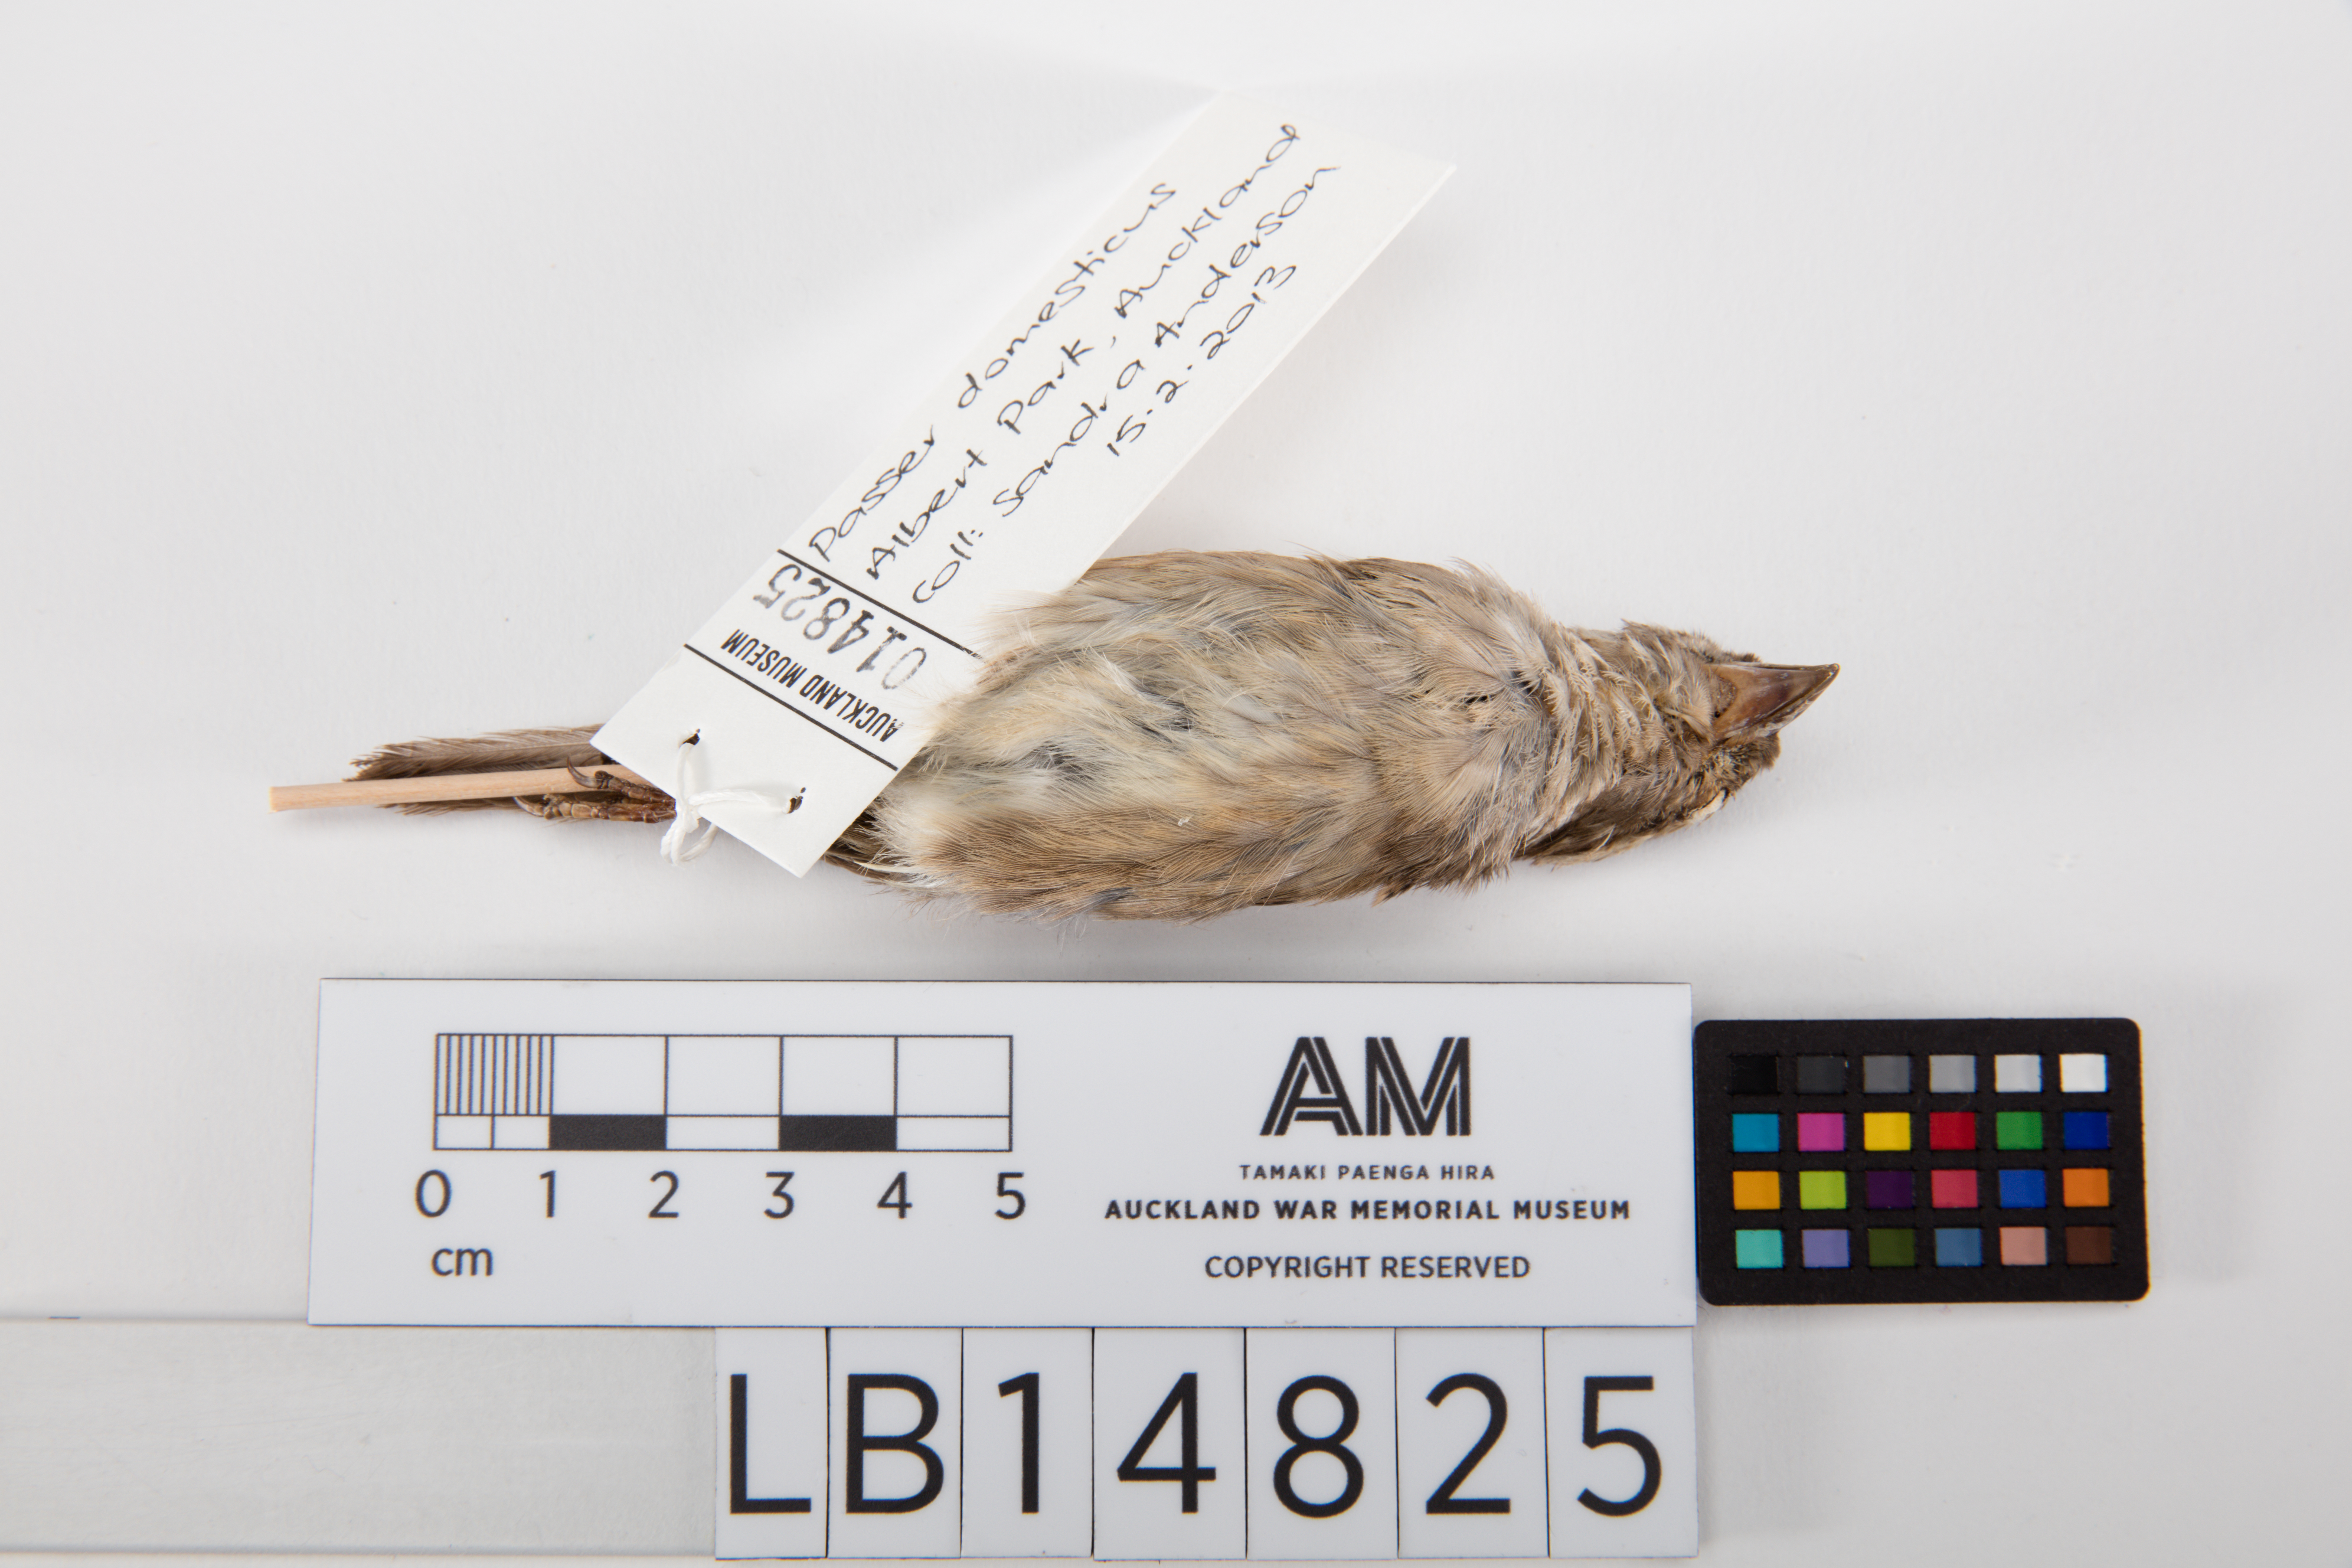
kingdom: Animalia
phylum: Chordata
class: Aves
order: Passeriformes
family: Passeridae
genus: Passer
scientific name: Passer domesticus
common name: House sparrow
